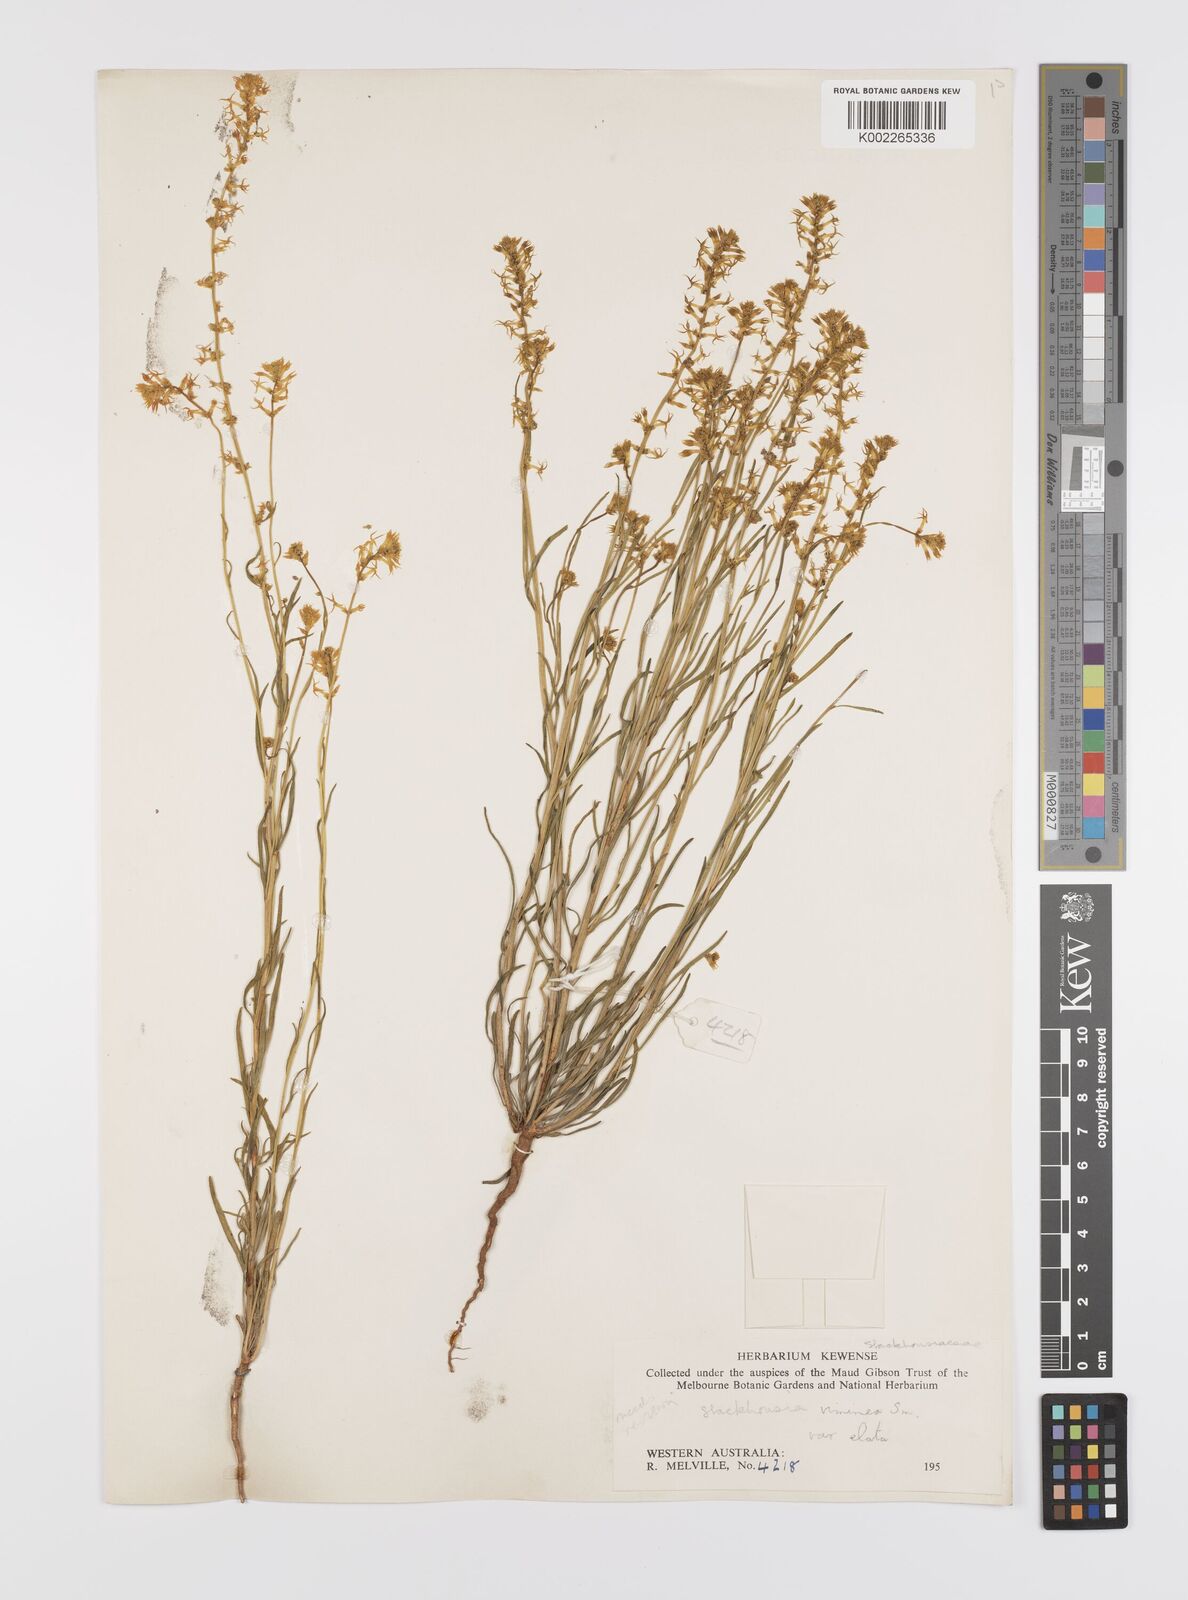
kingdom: Plantae
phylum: Tracheophyta
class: Magnoliopsida
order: Celastrales
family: Celastraceae
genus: Stackhousia
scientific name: Stackhousia viminea
